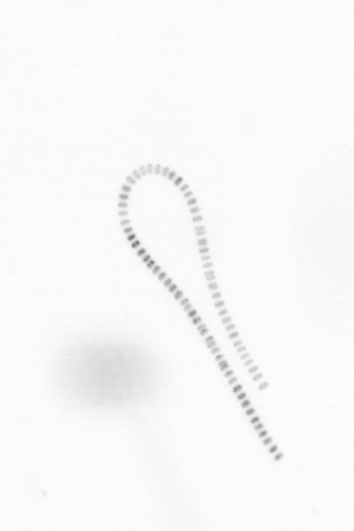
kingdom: Chromista
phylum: Ochrophyta
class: Bacillariophyceae
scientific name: Bacillariophyceae
